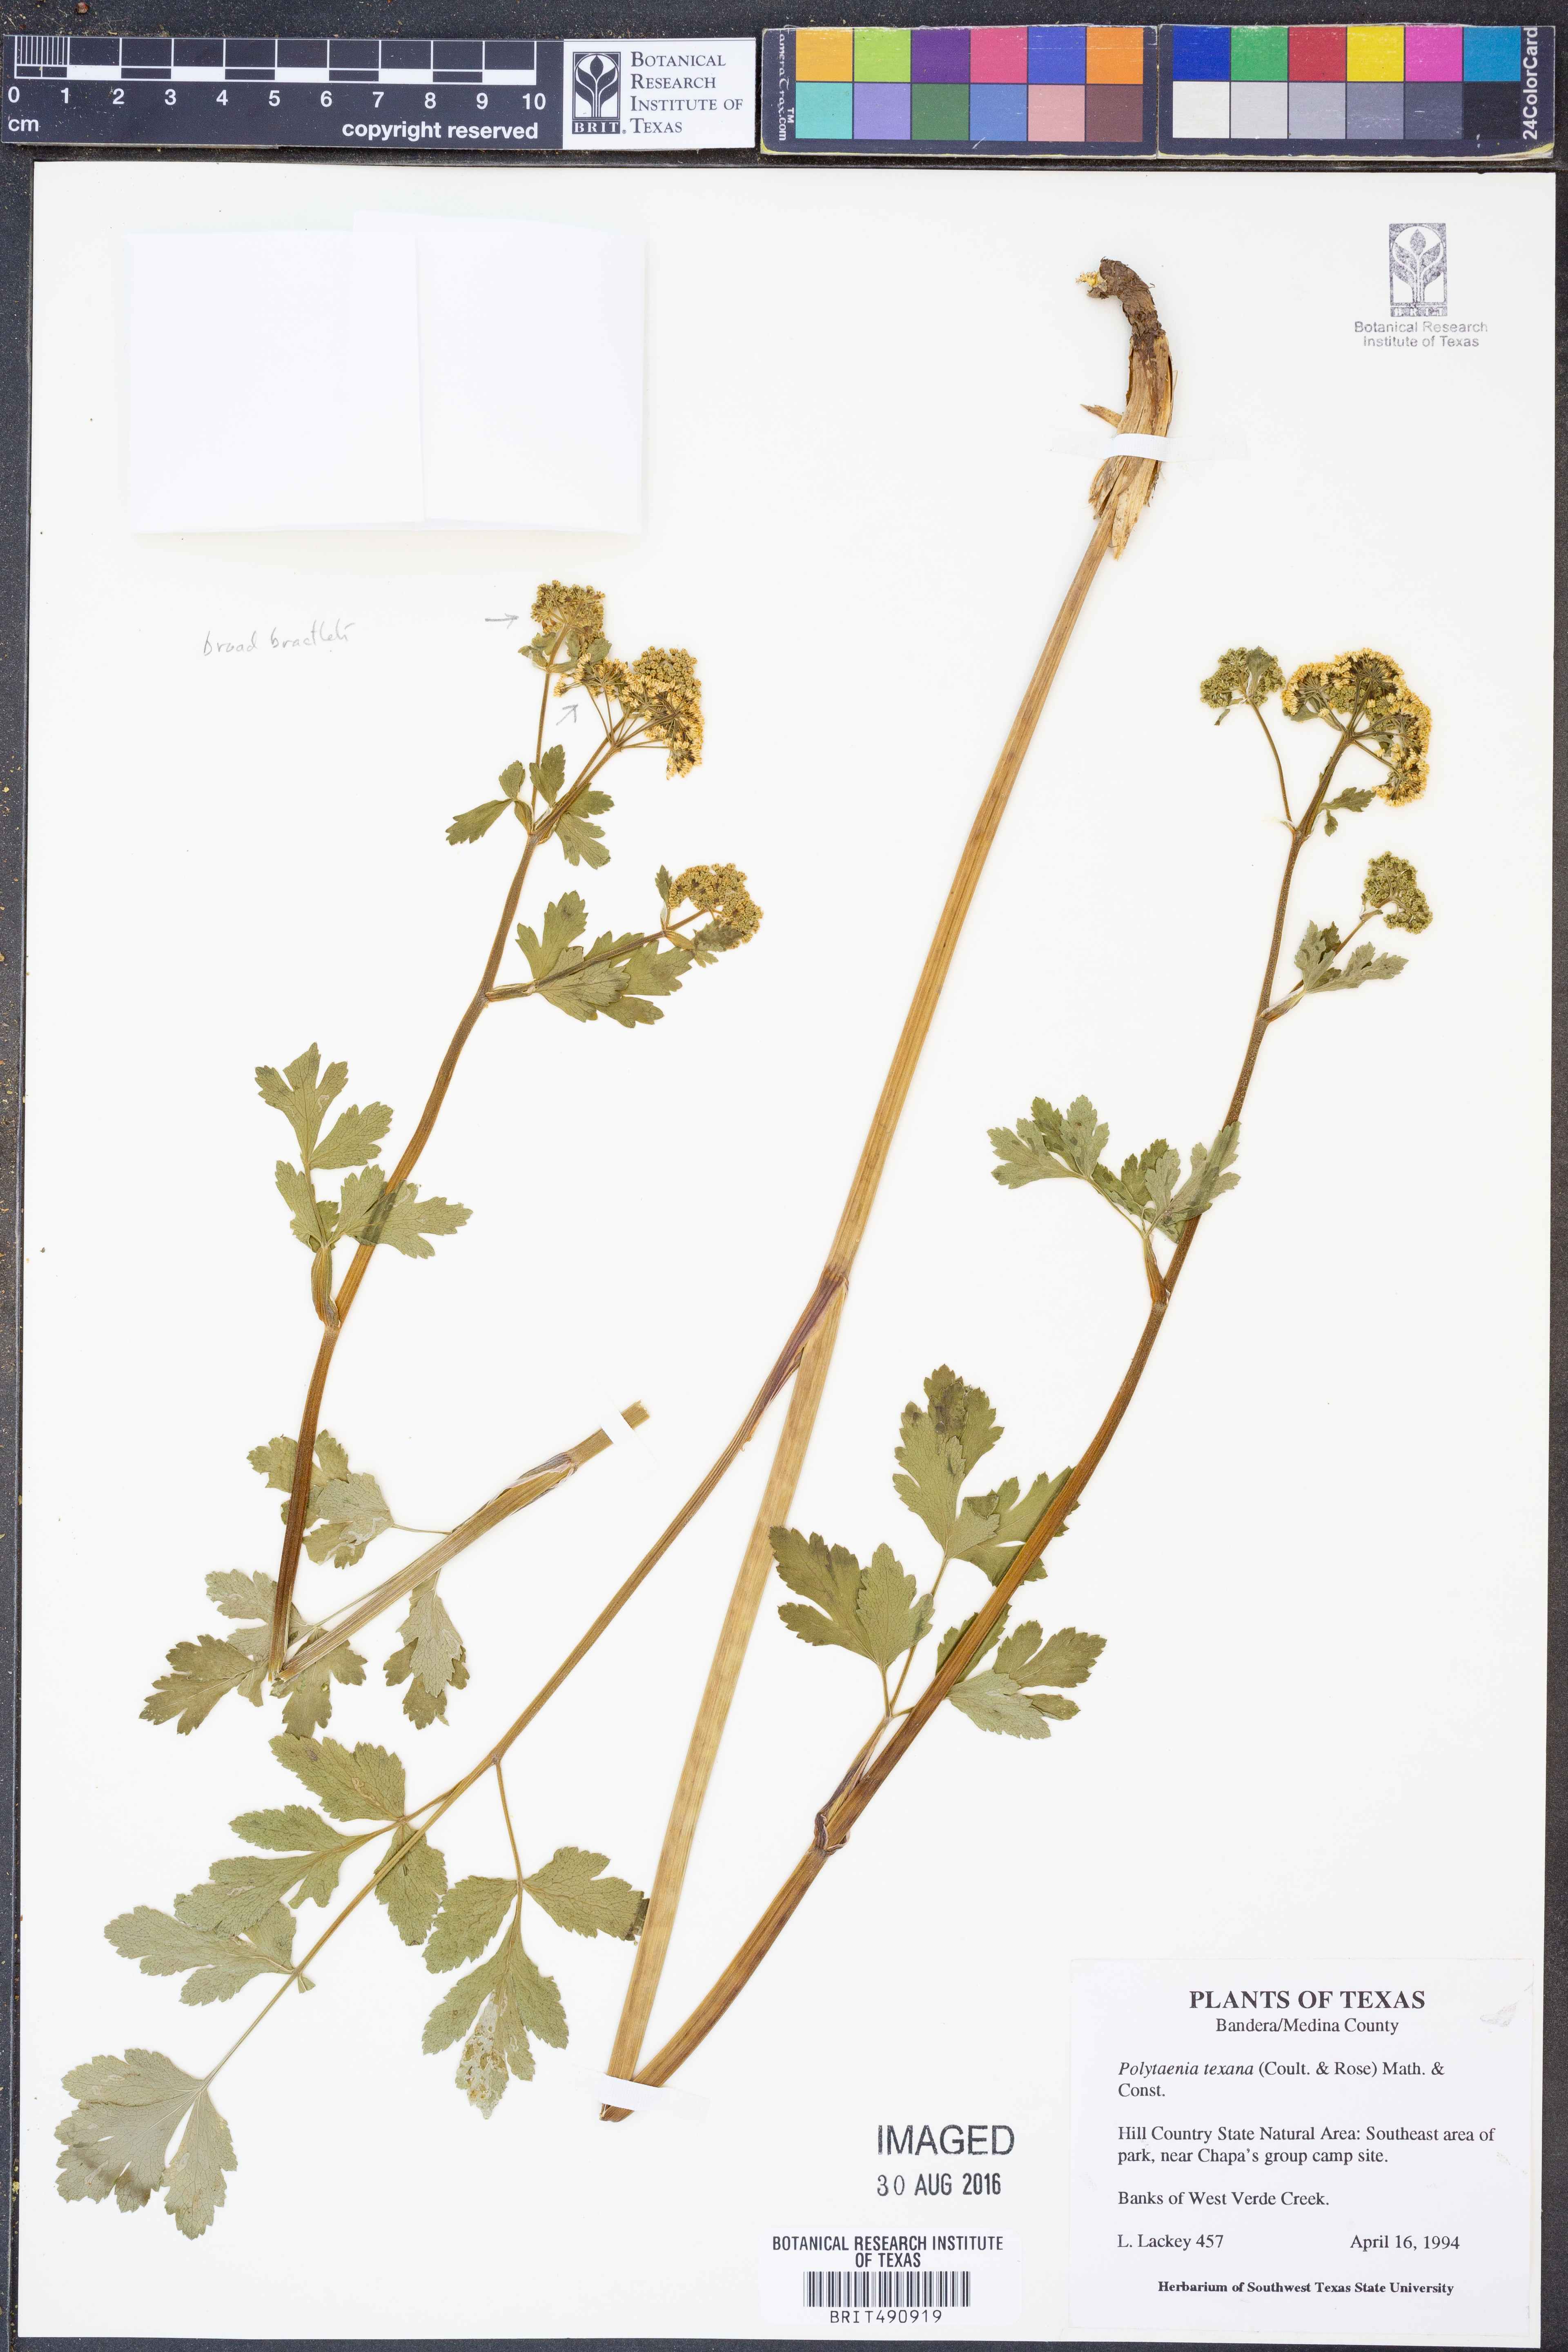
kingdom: Plantae
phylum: Tracheophyta
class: Magnoliopsida
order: Apiales
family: Apiaceae
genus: Polytaenia
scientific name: Polytaenia albiflora
